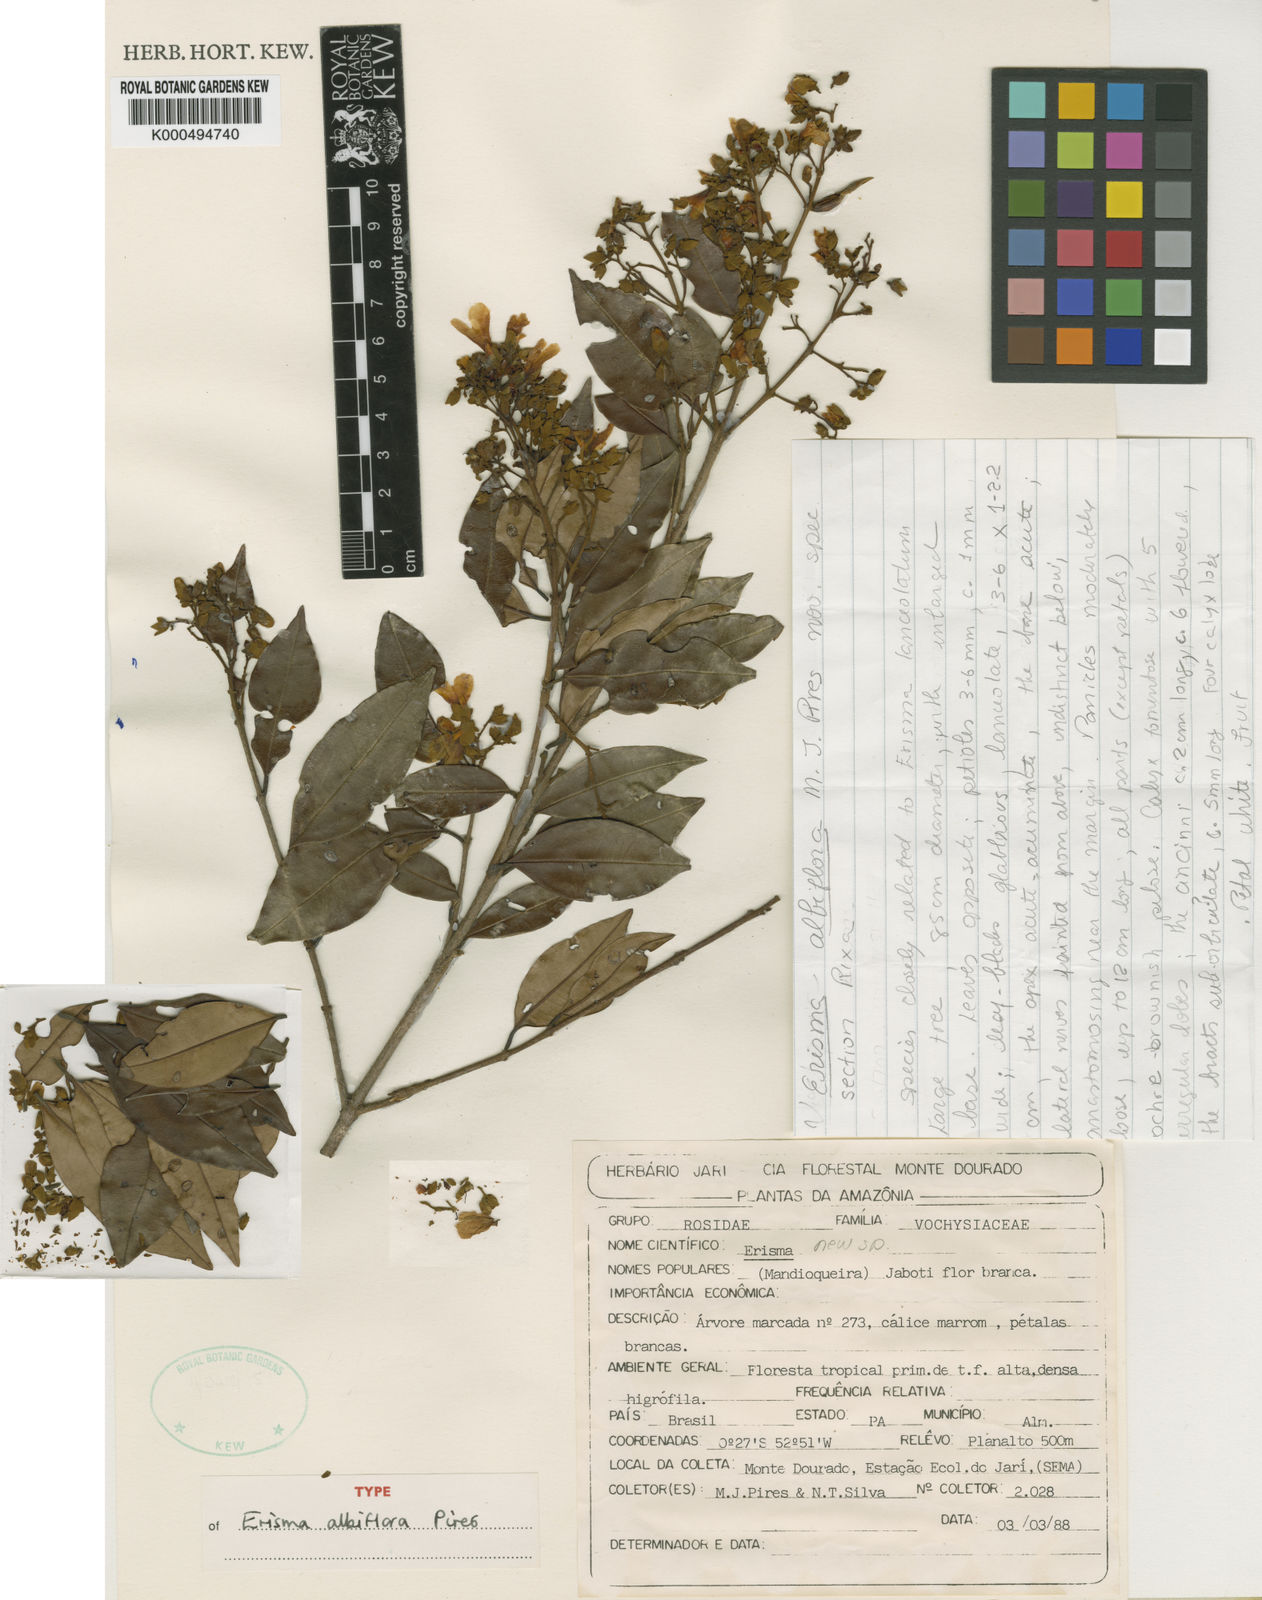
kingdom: Plantae
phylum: Tracheophyta
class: Magnoliopsida
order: Myrtales
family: Vochysiaceae
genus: Erisma
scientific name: Erisma
